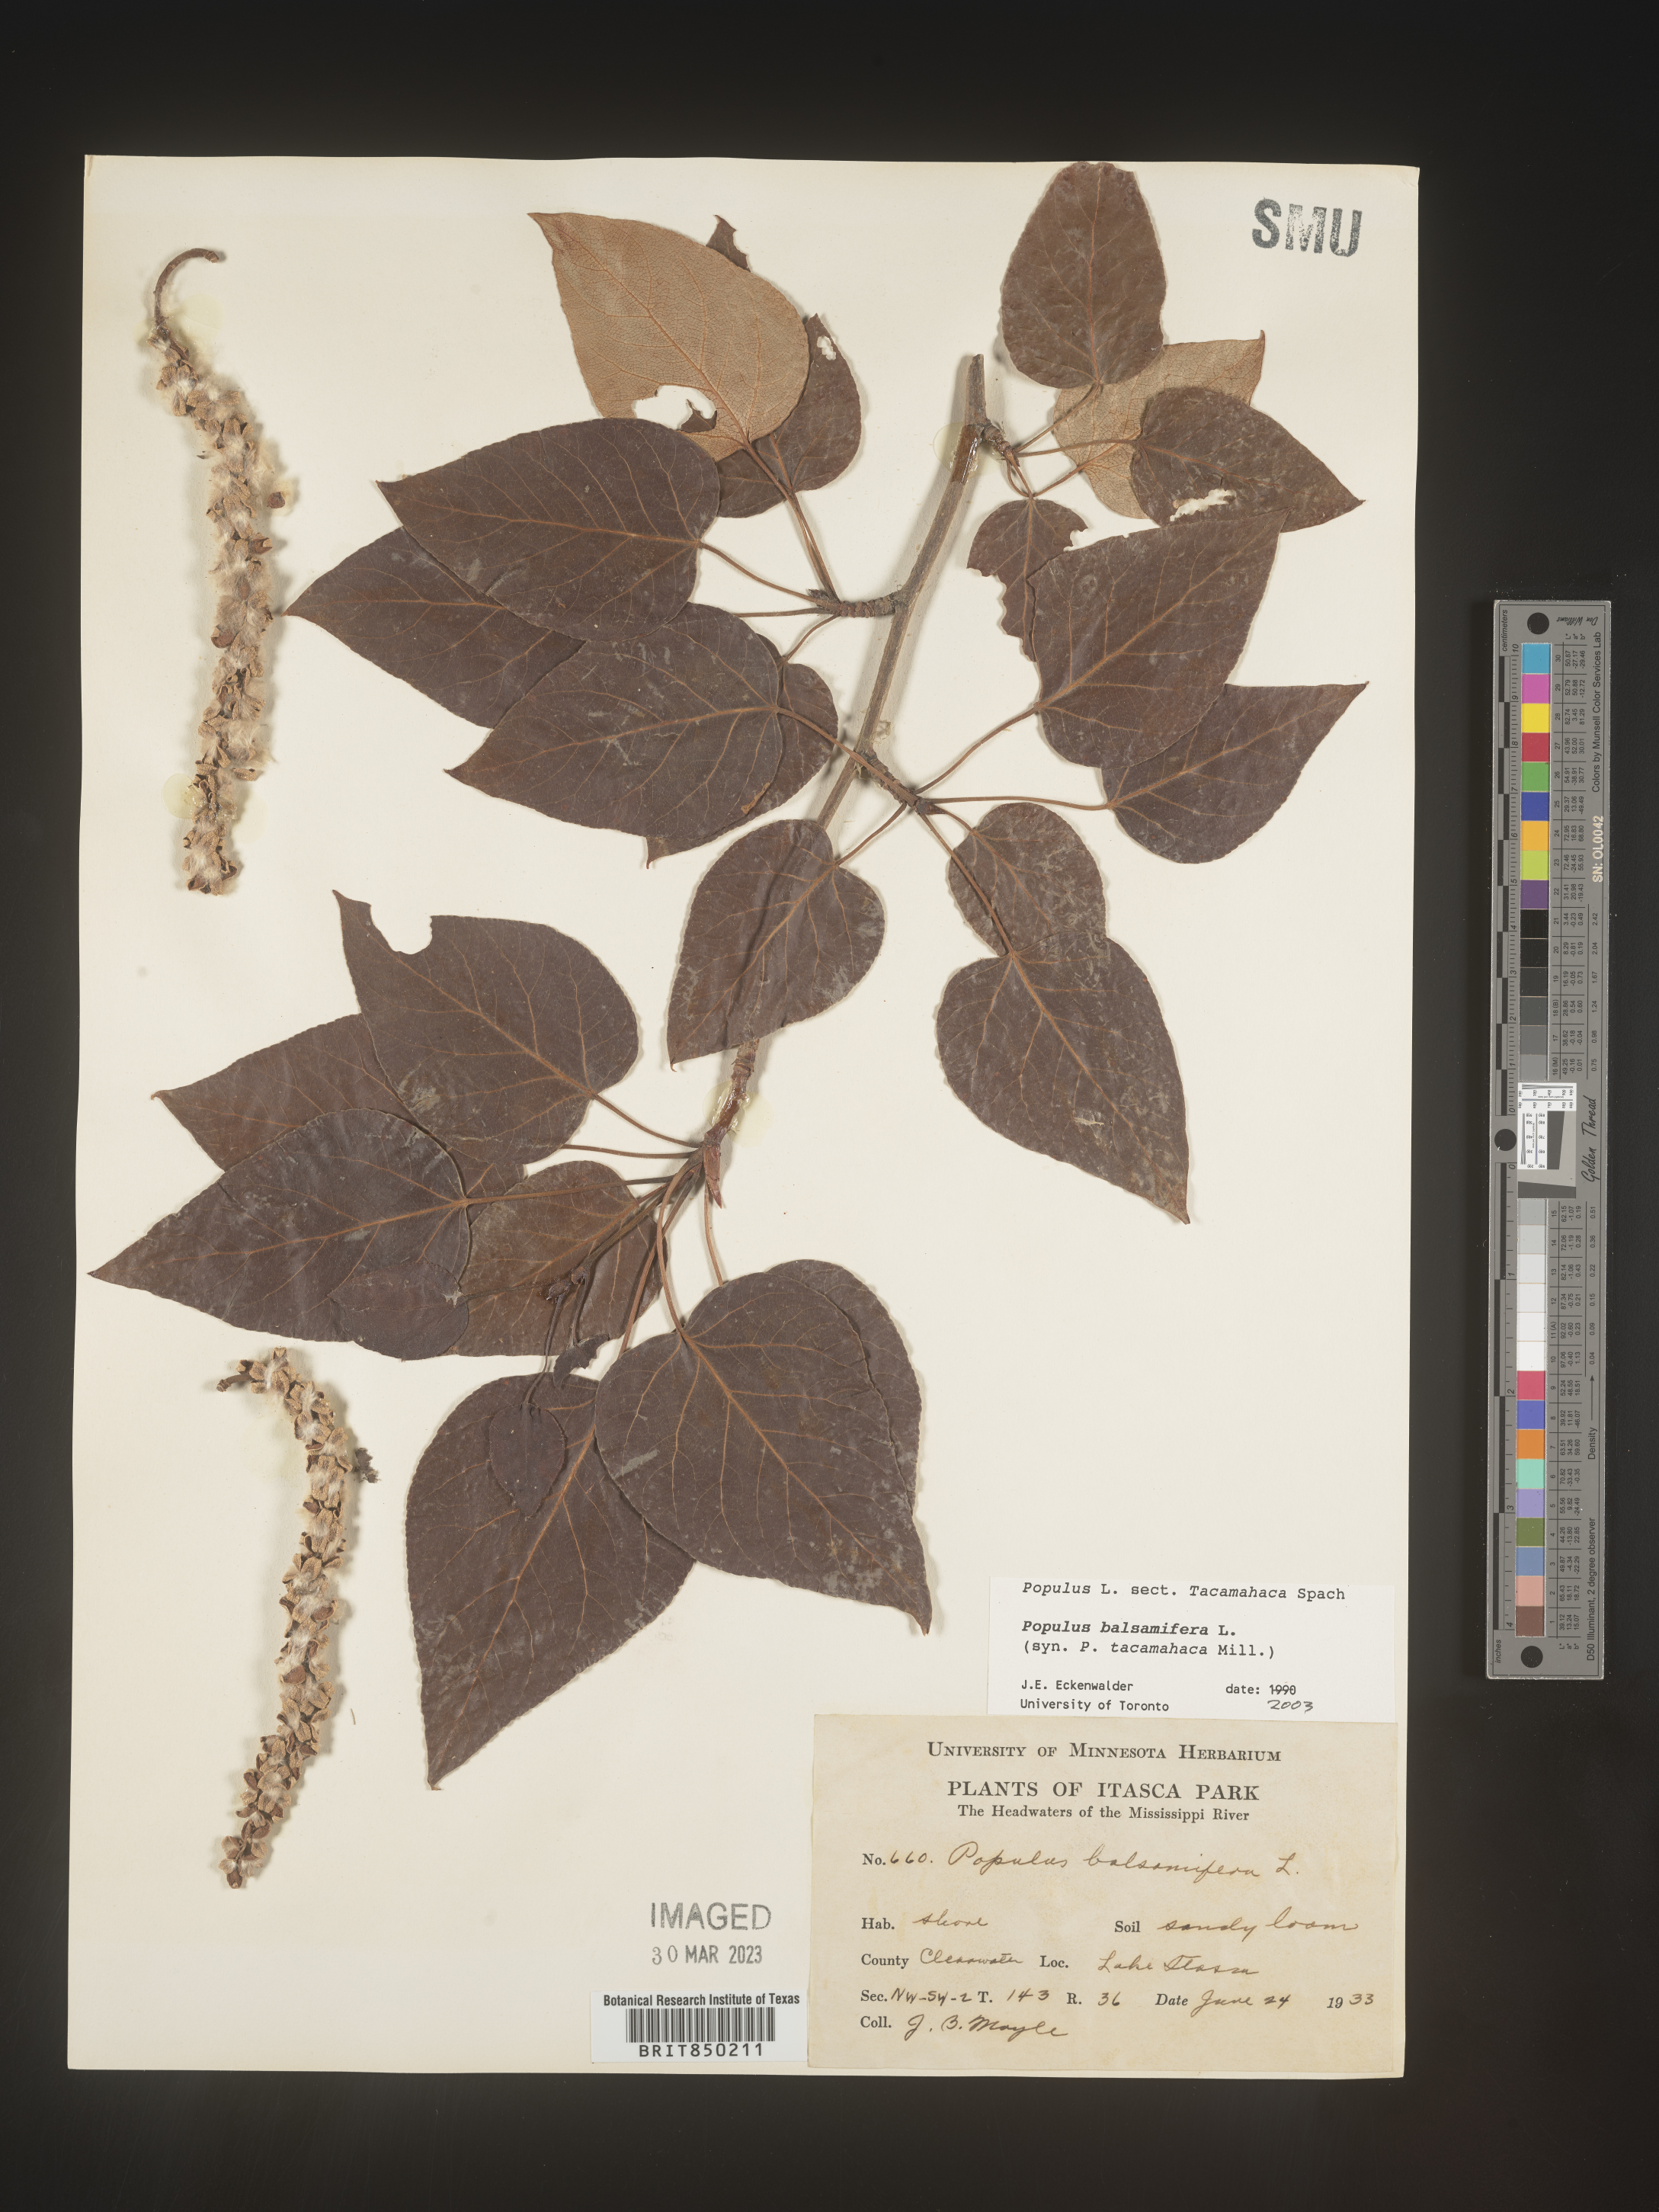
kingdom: Plantae
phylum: Tracheophyta
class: Magnoliopsida
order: Malpighiales
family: Salicaceae
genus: Populus
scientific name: Populus balsamifera
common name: Balsam poplar
